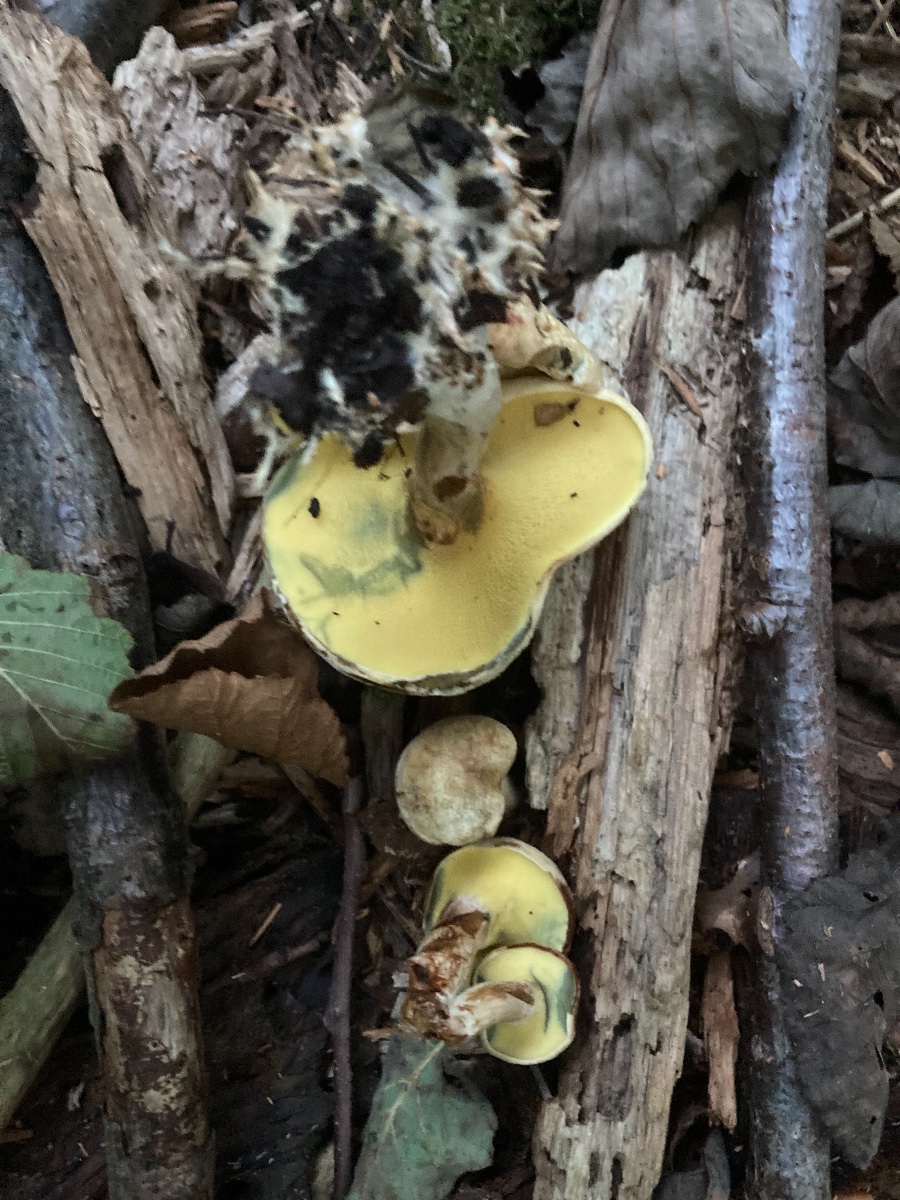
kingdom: Fungi
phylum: Basidiomycota
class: Agaricomycetes
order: Boletales
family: Paxillaceae
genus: Gyrodon
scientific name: Gyrodon lividus
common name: ellerørhat
